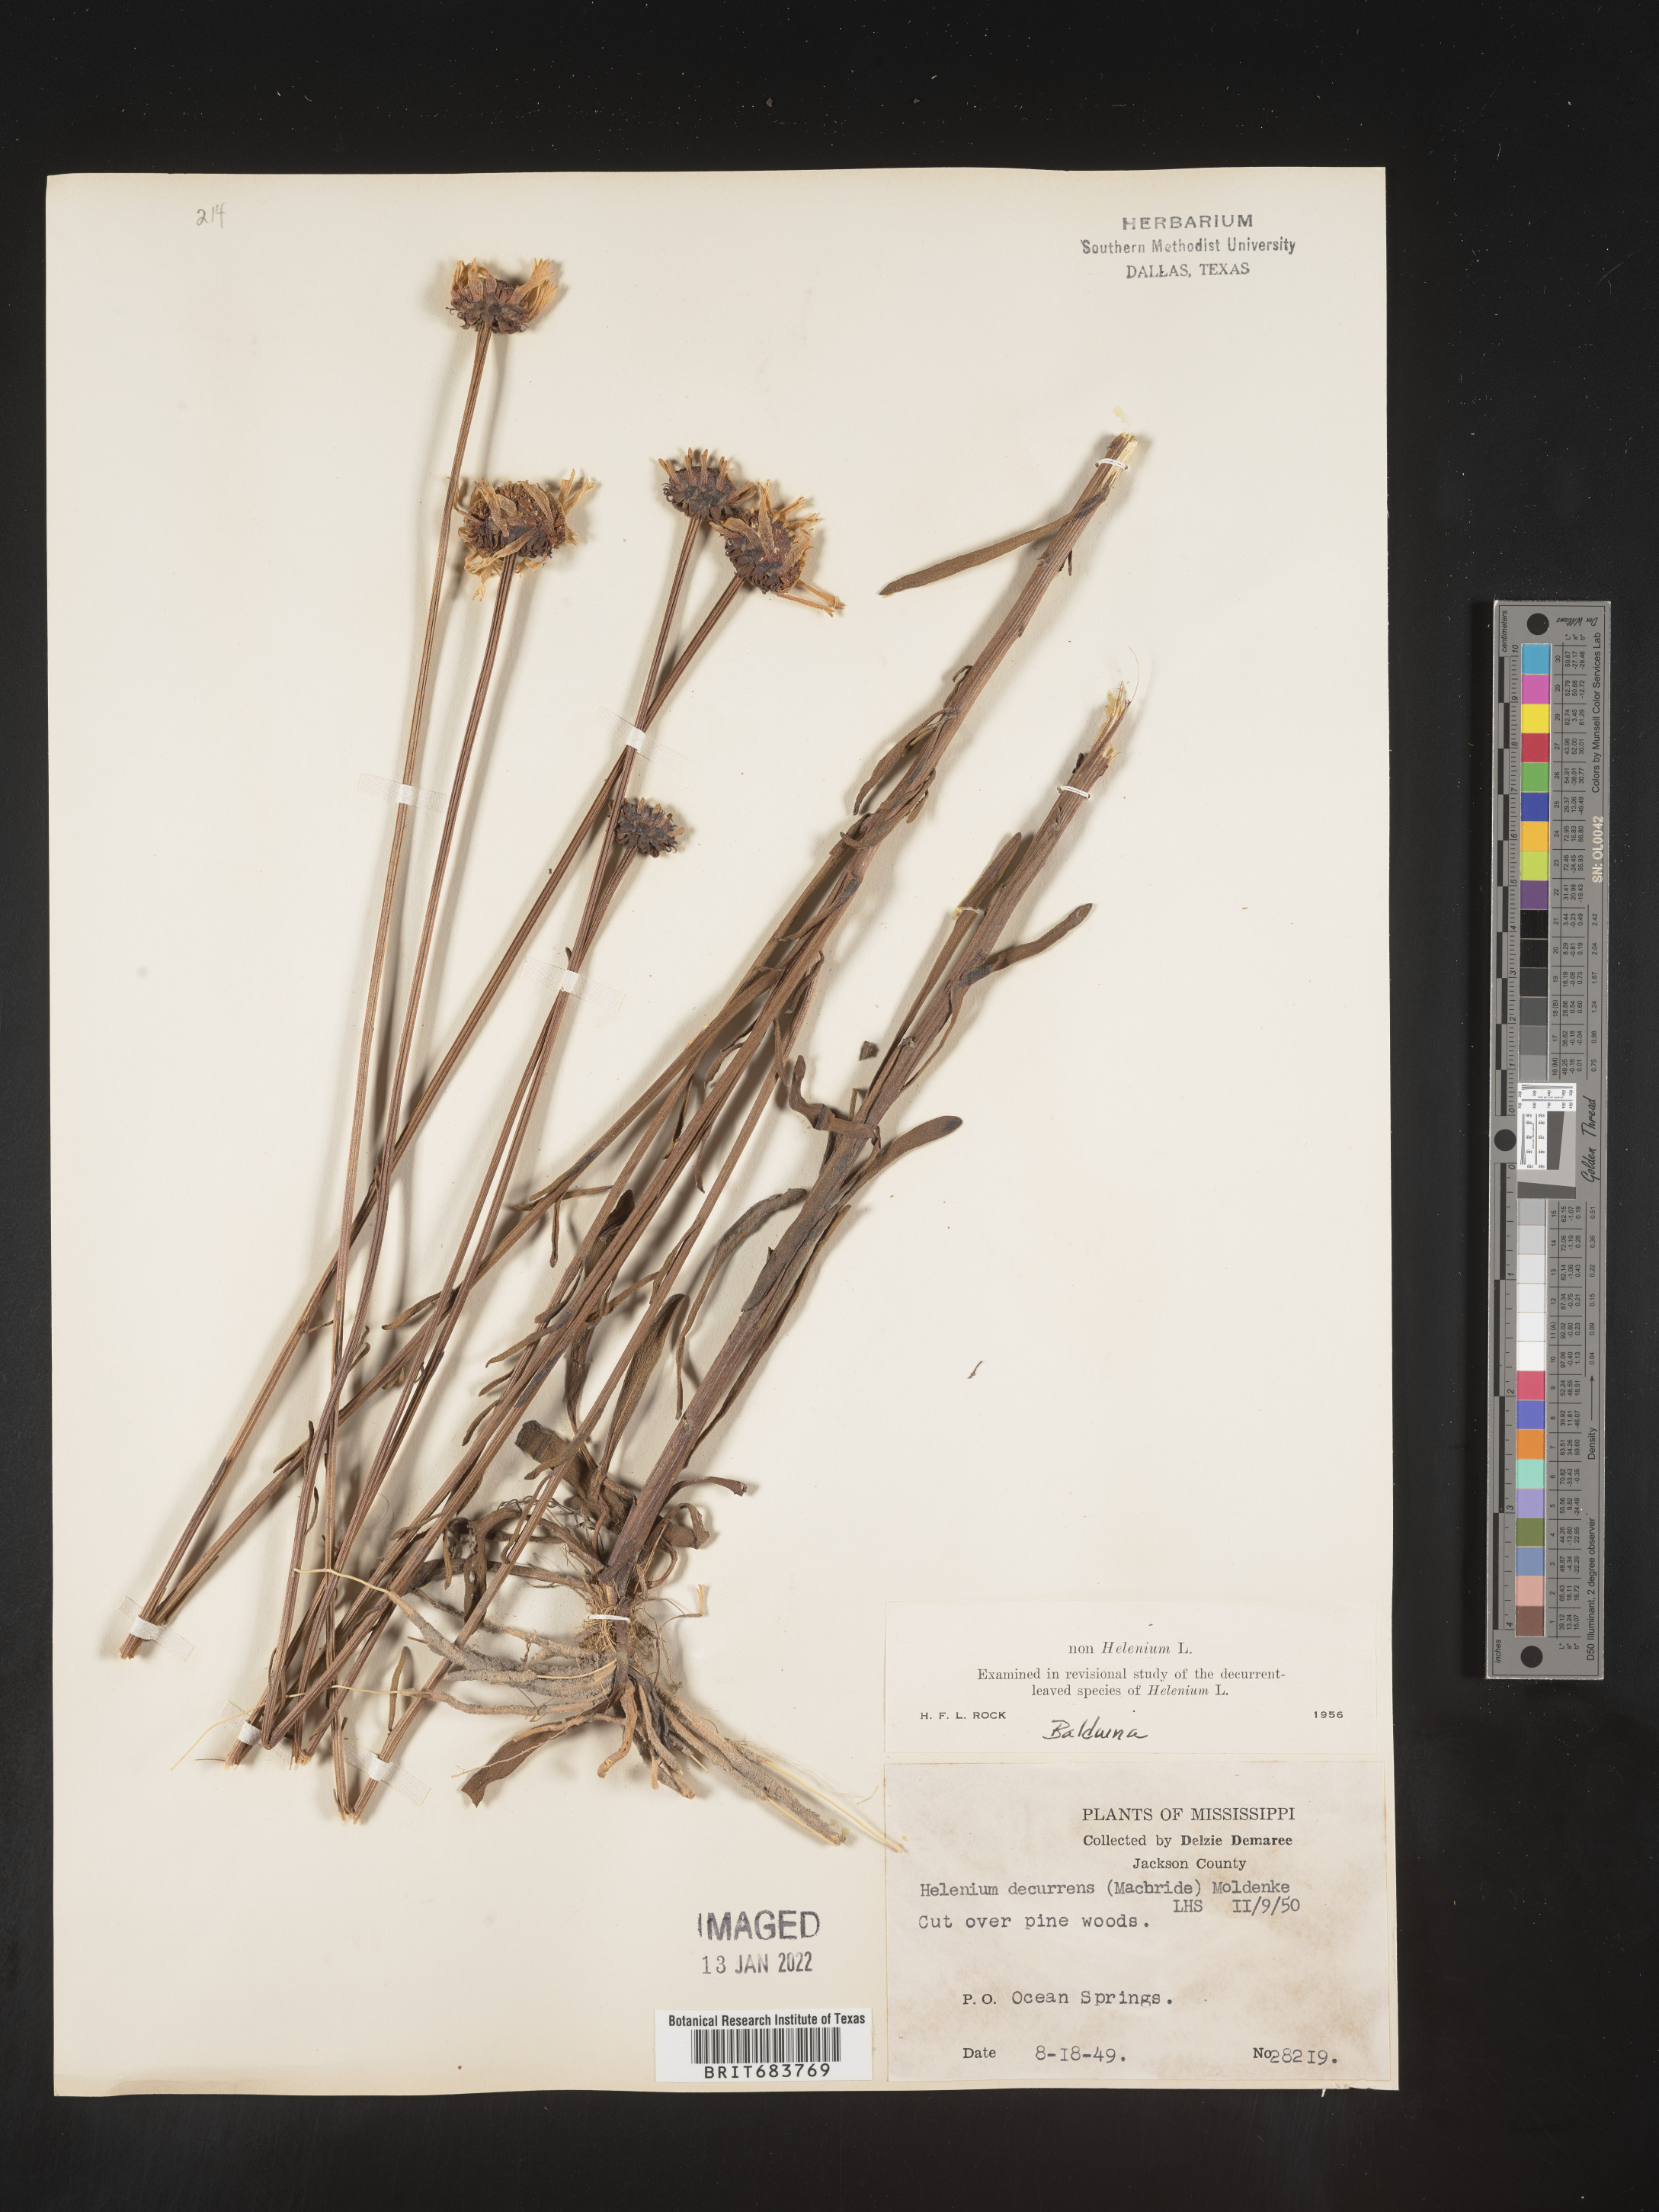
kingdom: Plantae
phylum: Tracheophyta
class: Magnoliopsida
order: Asterales
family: Asteraceae
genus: Balduina
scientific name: Balduina uniflora
